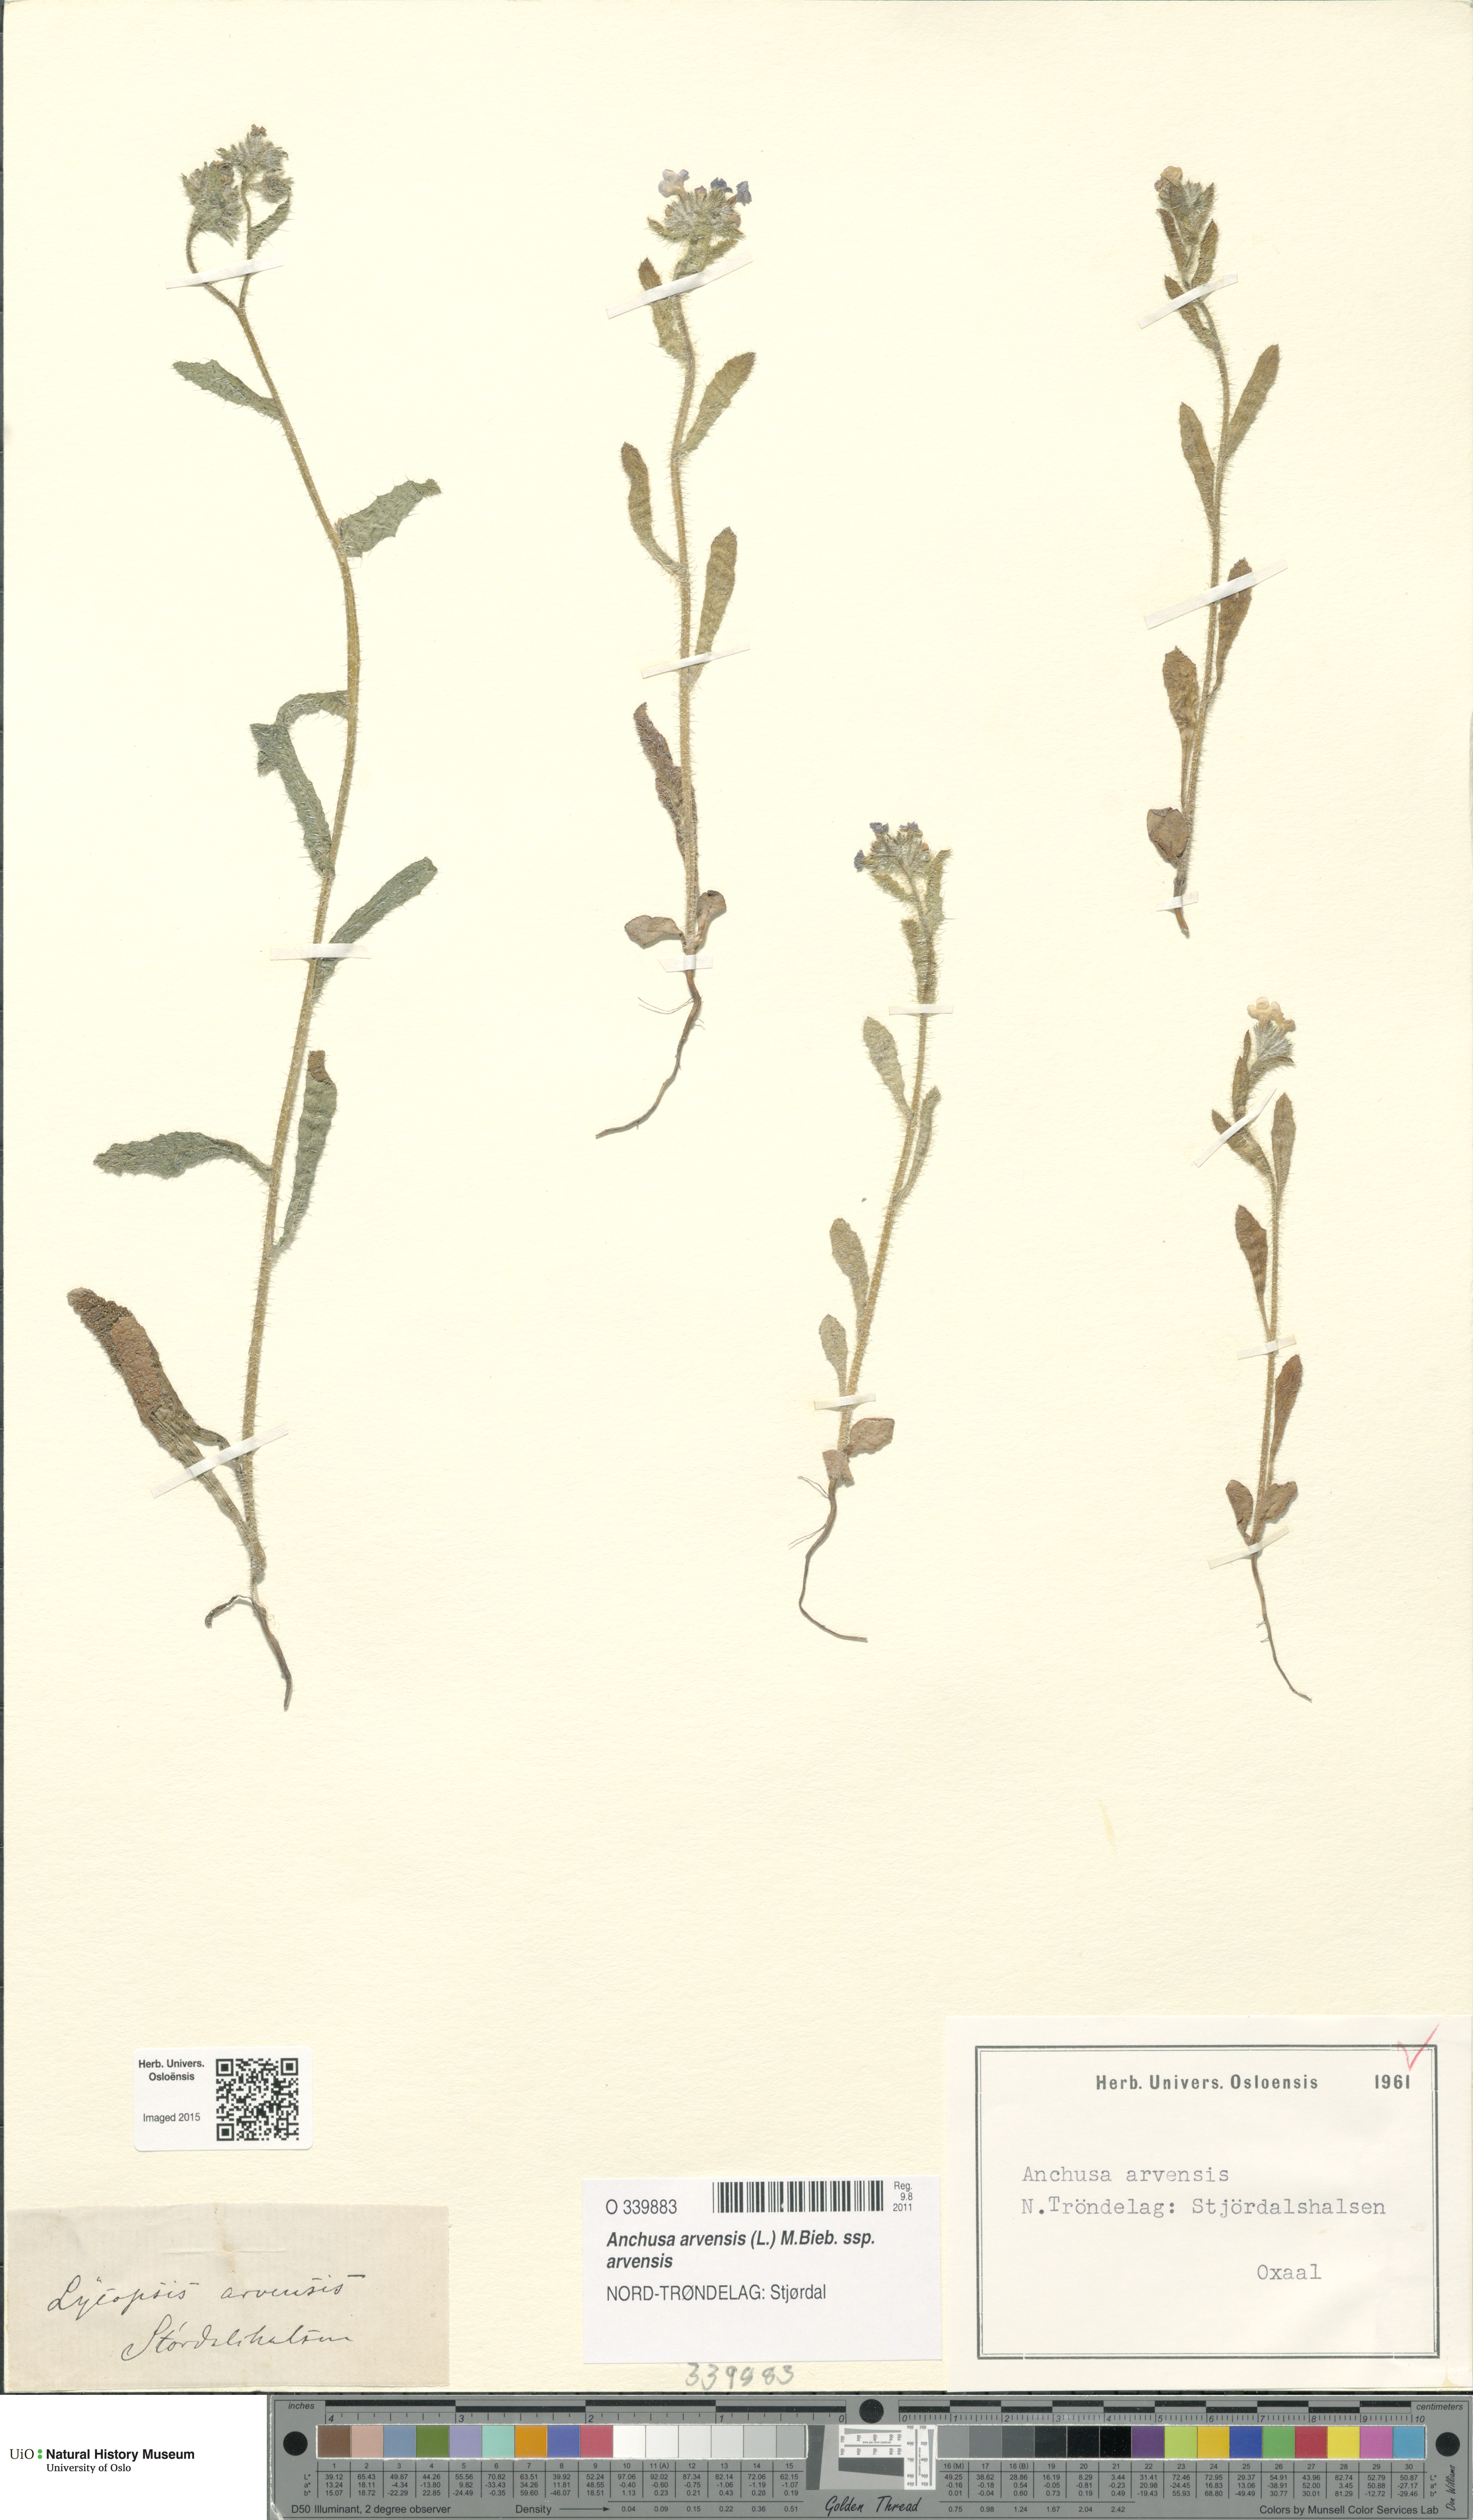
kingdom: Plantae
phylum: Tracheophyta
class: Magnoliopsida
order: Boraginales
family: Boraginaceae
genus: Lycopsis
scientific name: Lycopsis arvensis
